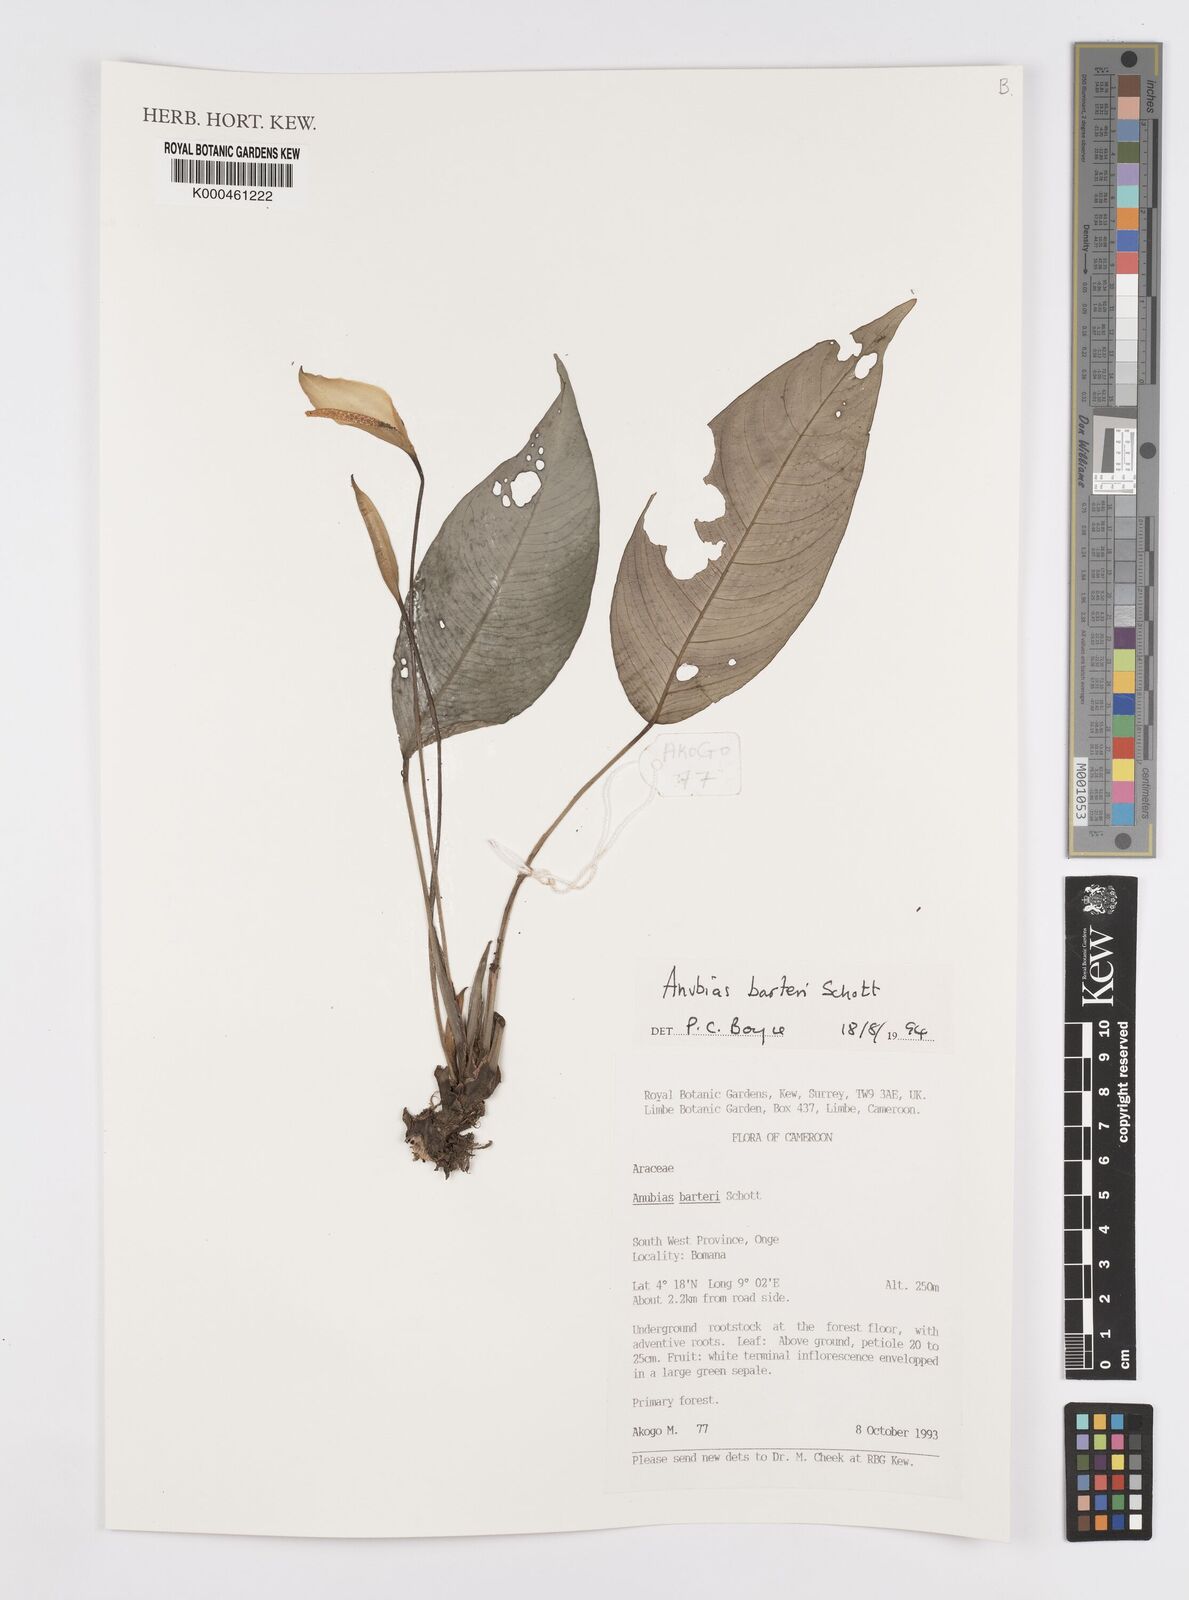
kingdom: Plantae
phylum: Tracheophyta
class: Liliopsida
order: Alismatales
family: Araceae
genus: Anubias
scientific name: Anubias barteri
